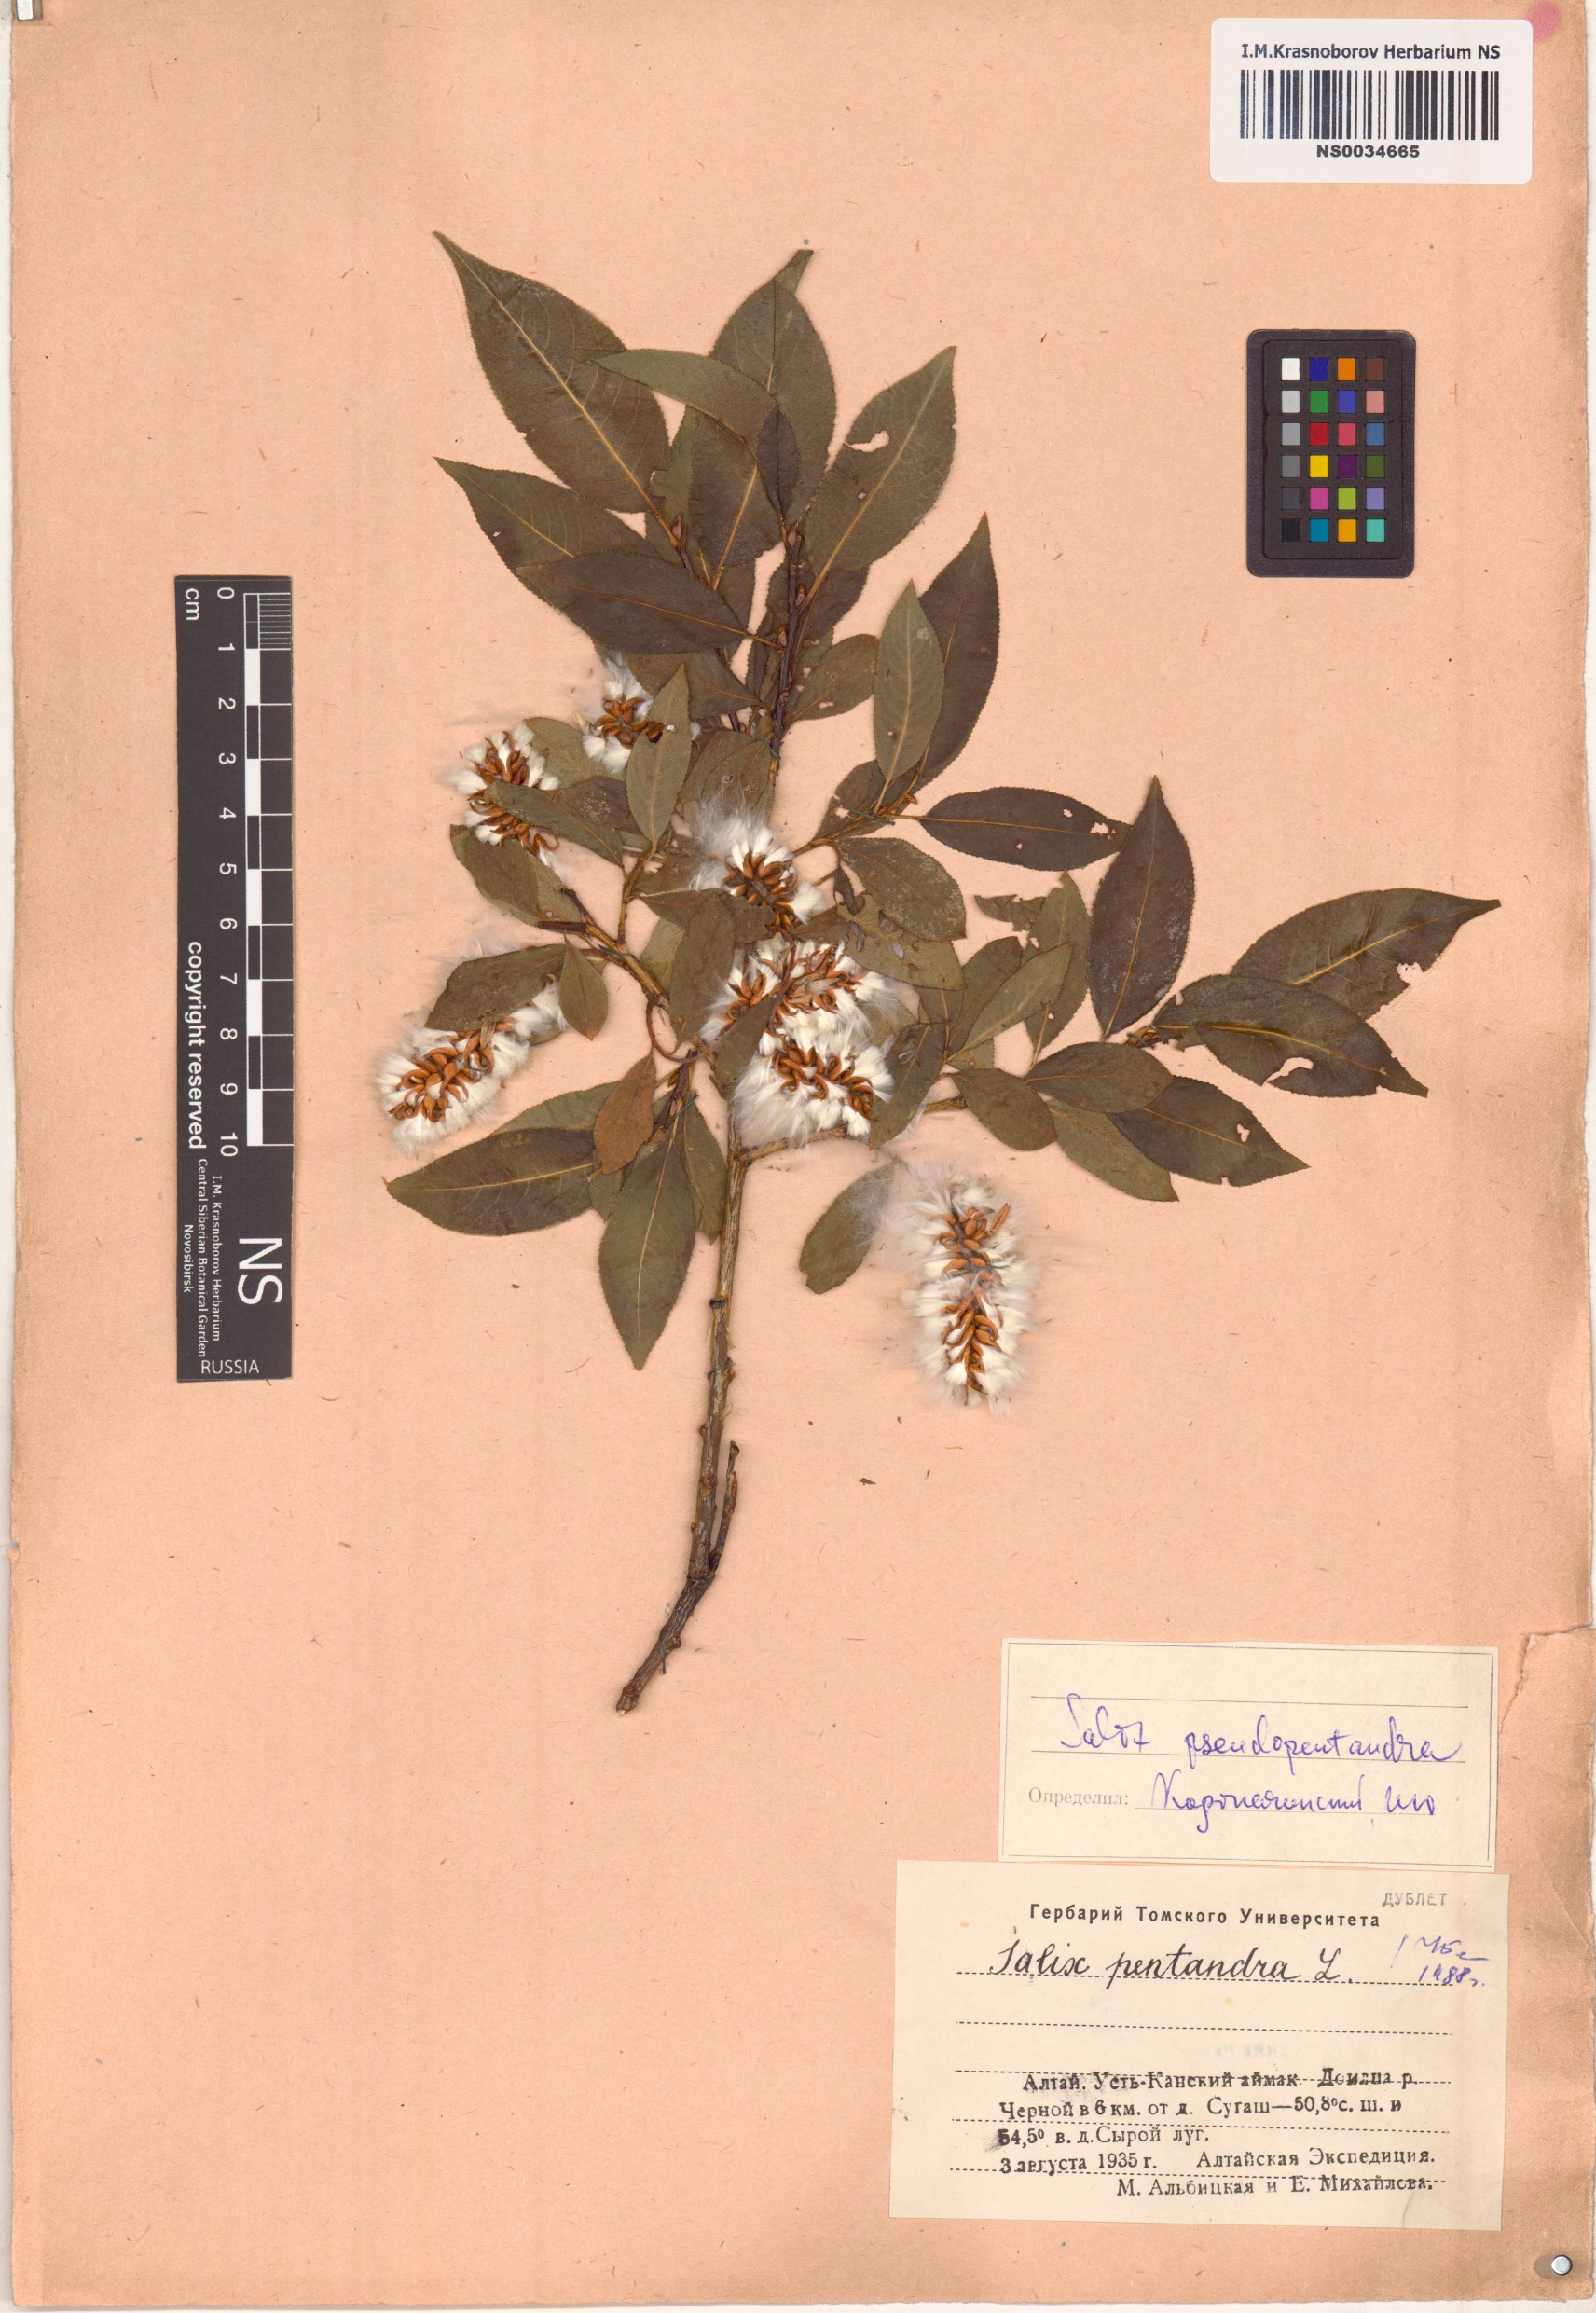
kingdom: Plantae
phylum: Tracheophyta
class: Magnoliopsida
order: Malpighiales
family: Salicaceae
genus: Salix
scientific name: Salix pentandra
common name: Bay willow
